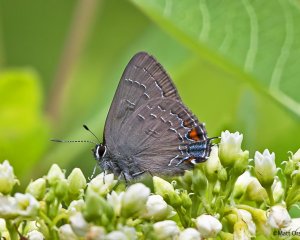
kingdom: Animalia
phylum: Arthropoda
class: Insecta
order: Lepidoptera
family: Lycaenidae
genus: Satyrium
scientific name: Satyrium calanus
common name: Banded Hairstreak
